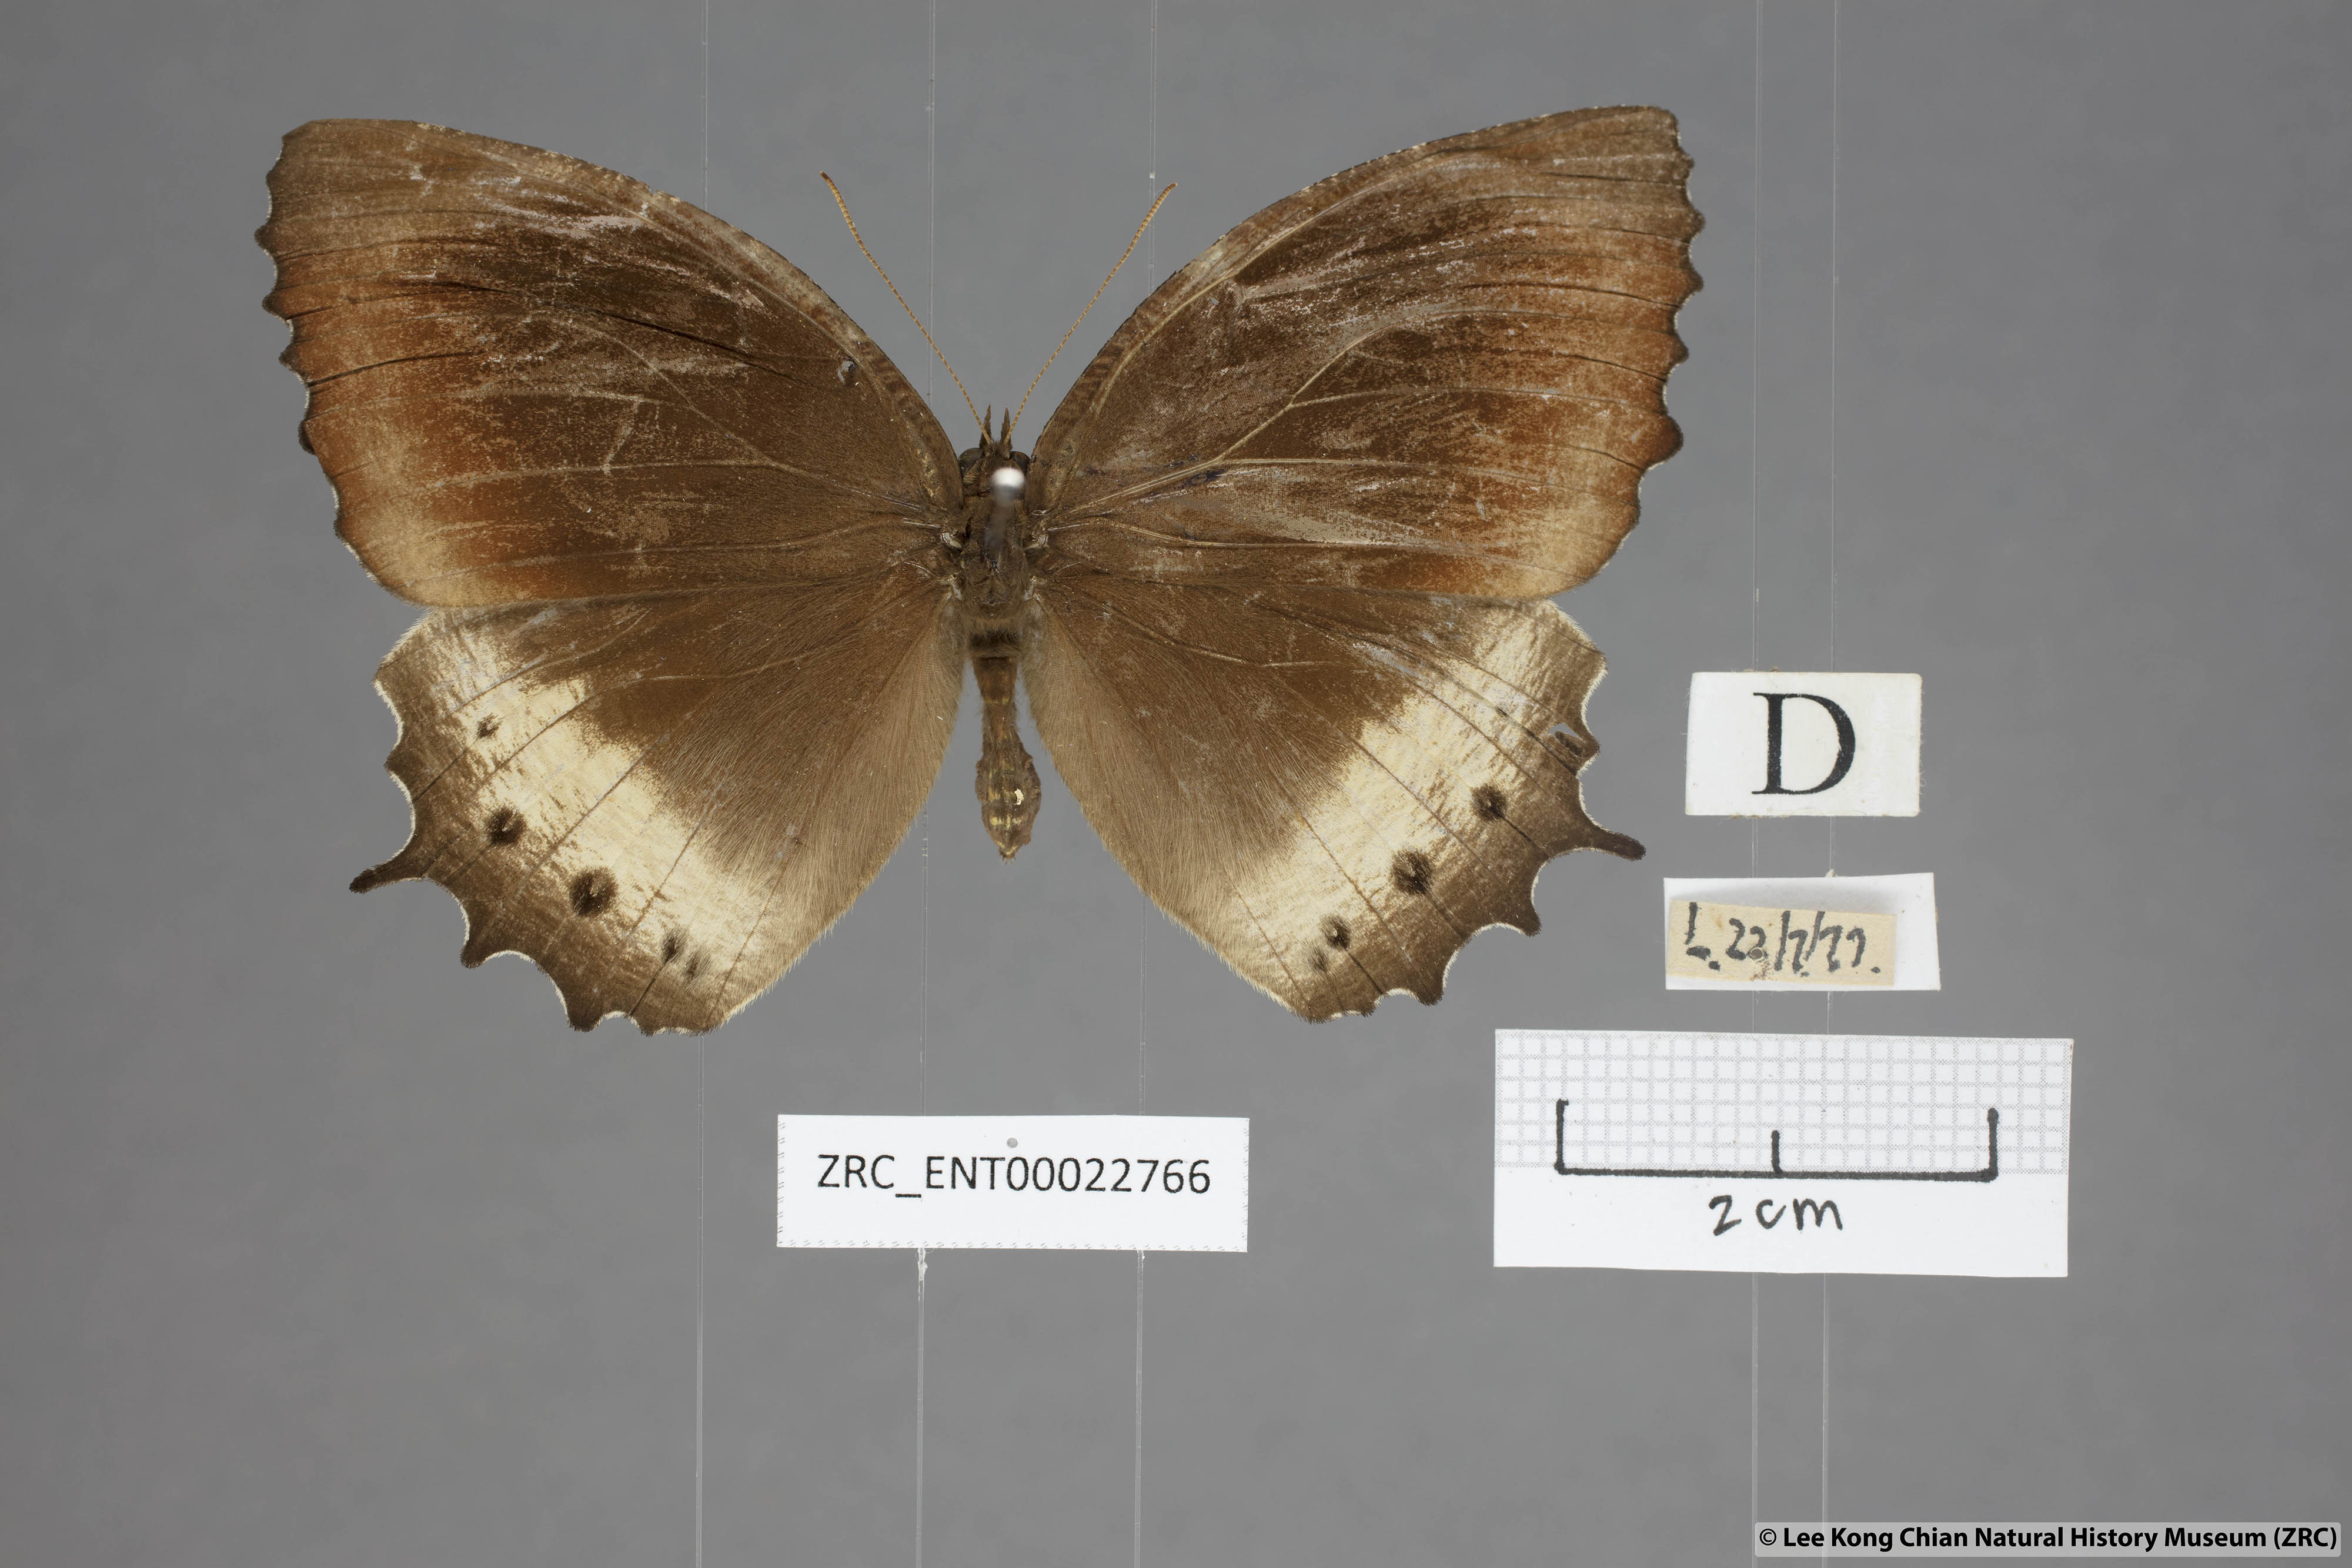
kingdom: Animalia
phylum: Arthropoda
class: Insecta
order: Lepidoptera
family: Nymphalidae
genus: Elymnias
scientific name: Elymnias panthera
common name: Tawny palmfly
